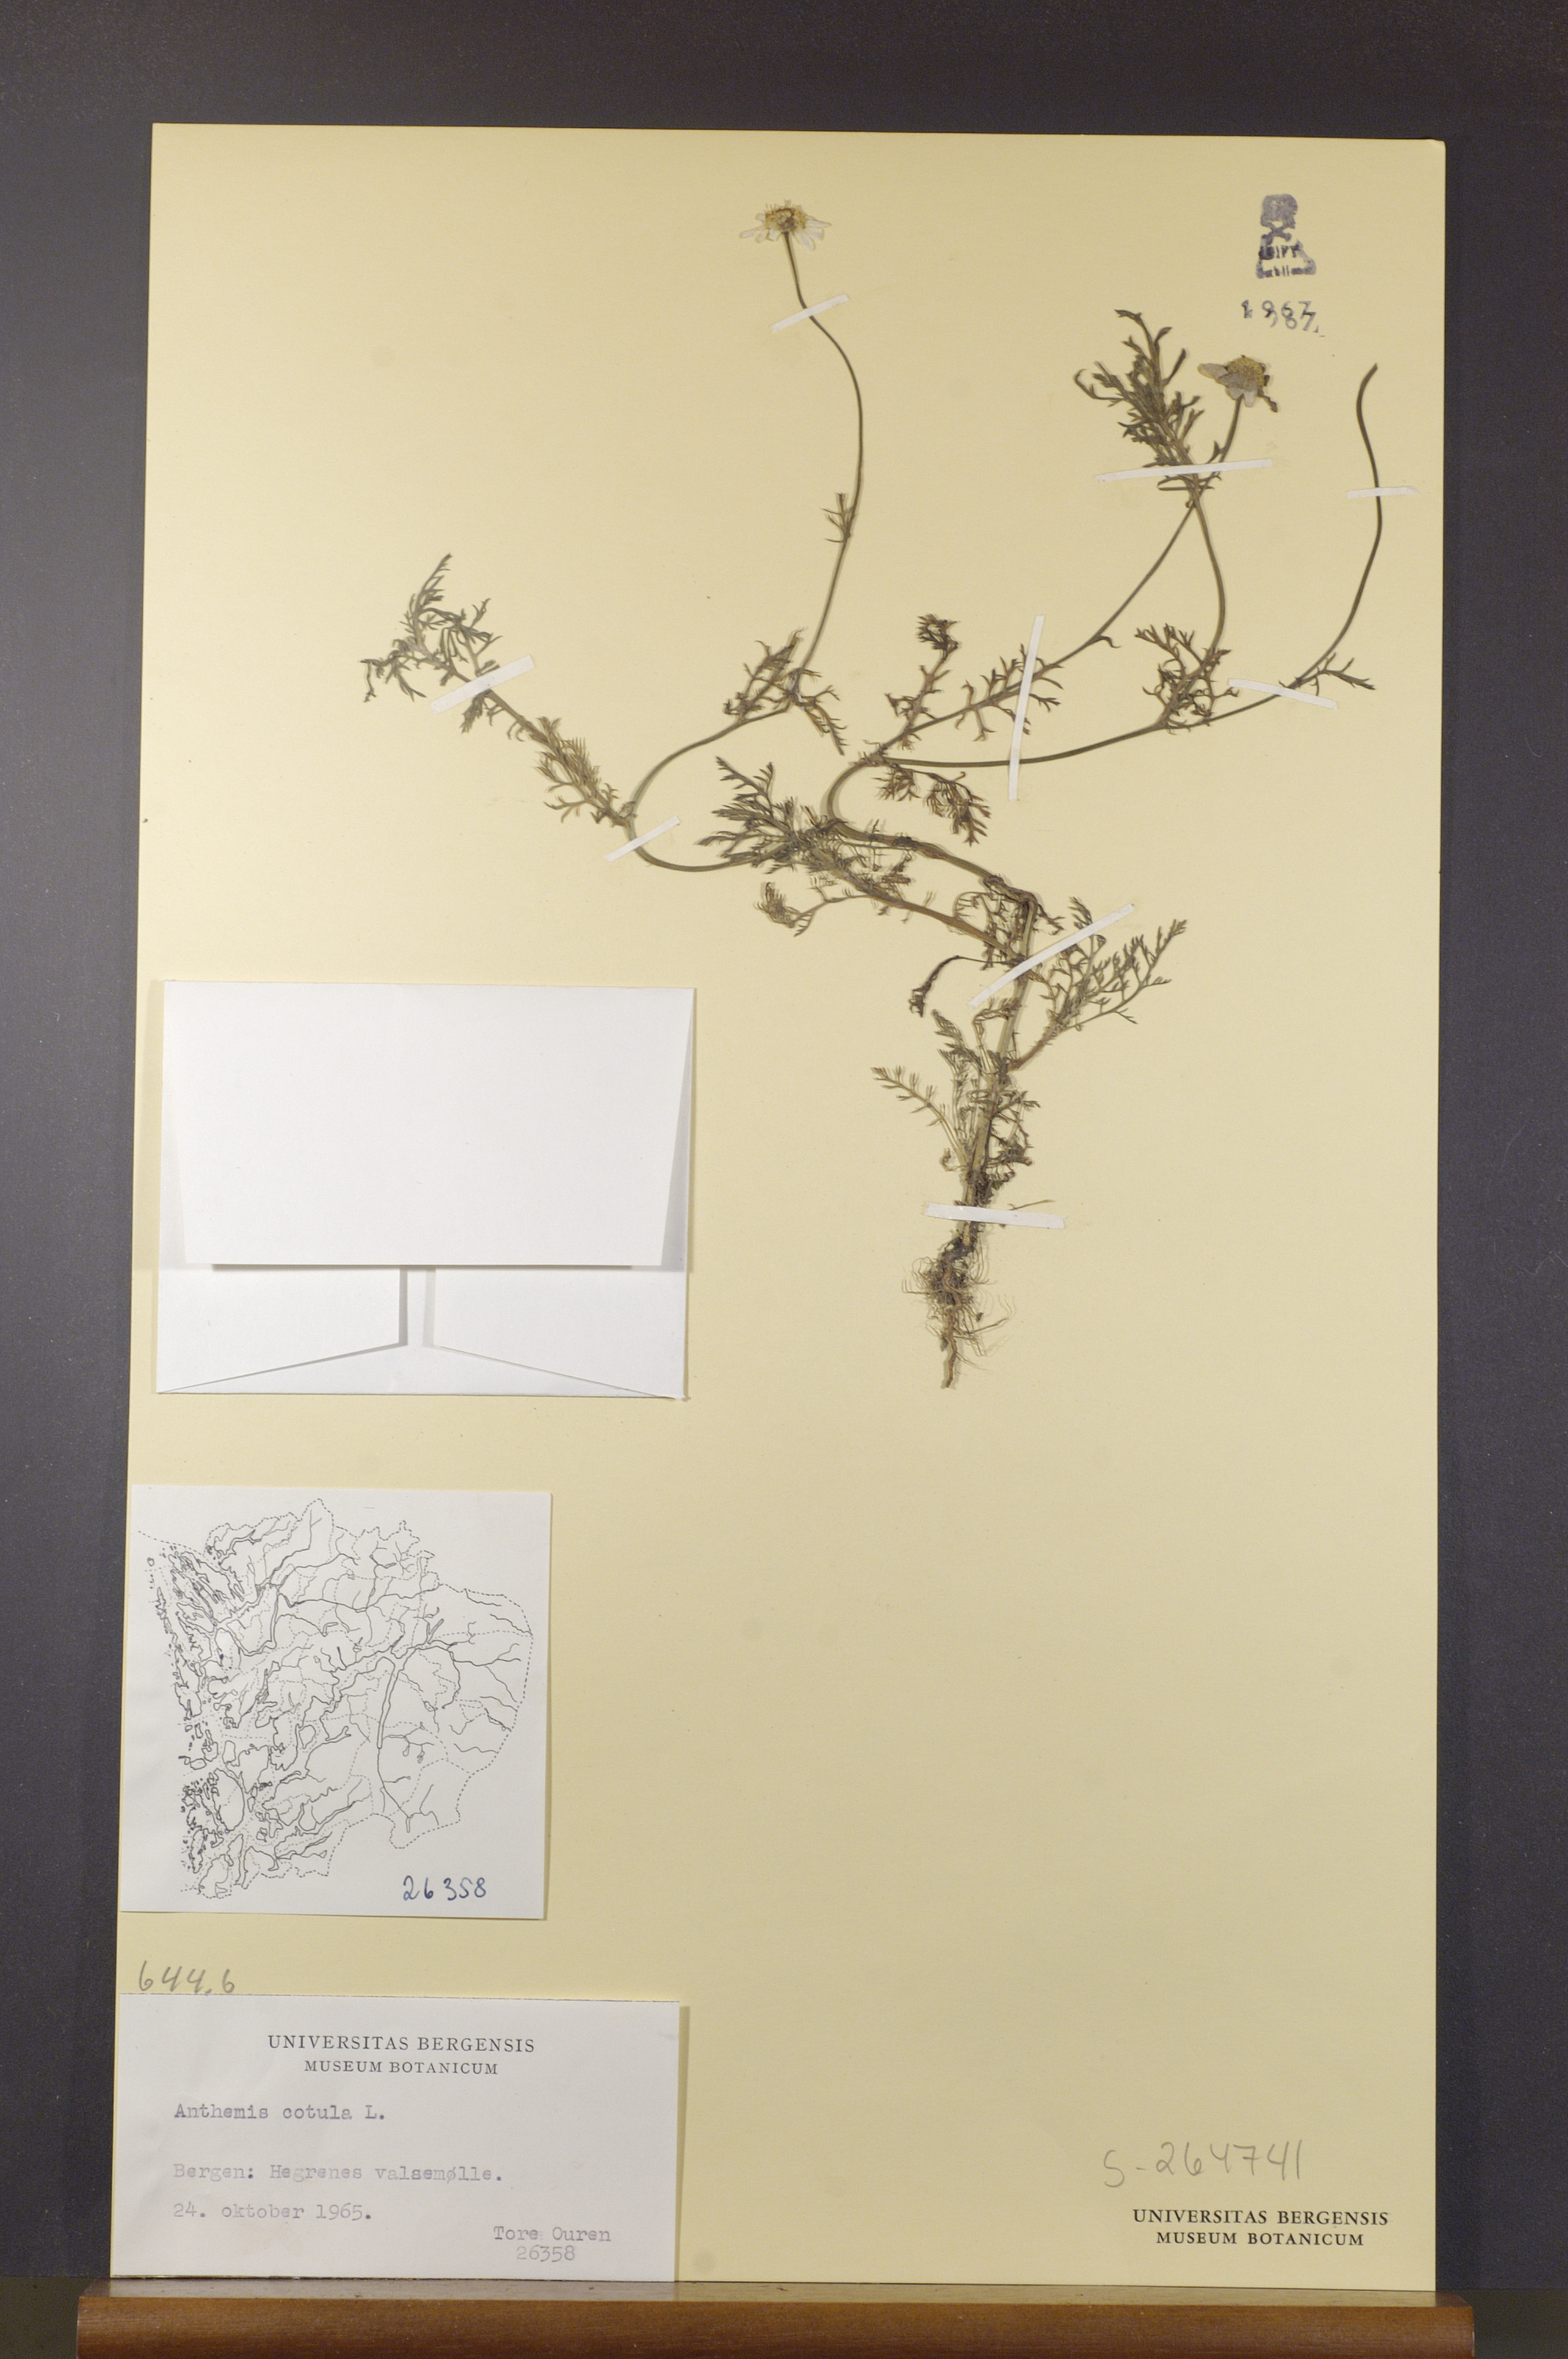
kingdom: Plantae
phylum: Tracheophyta
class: Magnoliopsida
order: Asterales
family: Asteraceae
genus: Anthemis
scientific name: Anthemis cotula
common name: Stinking chamomile
